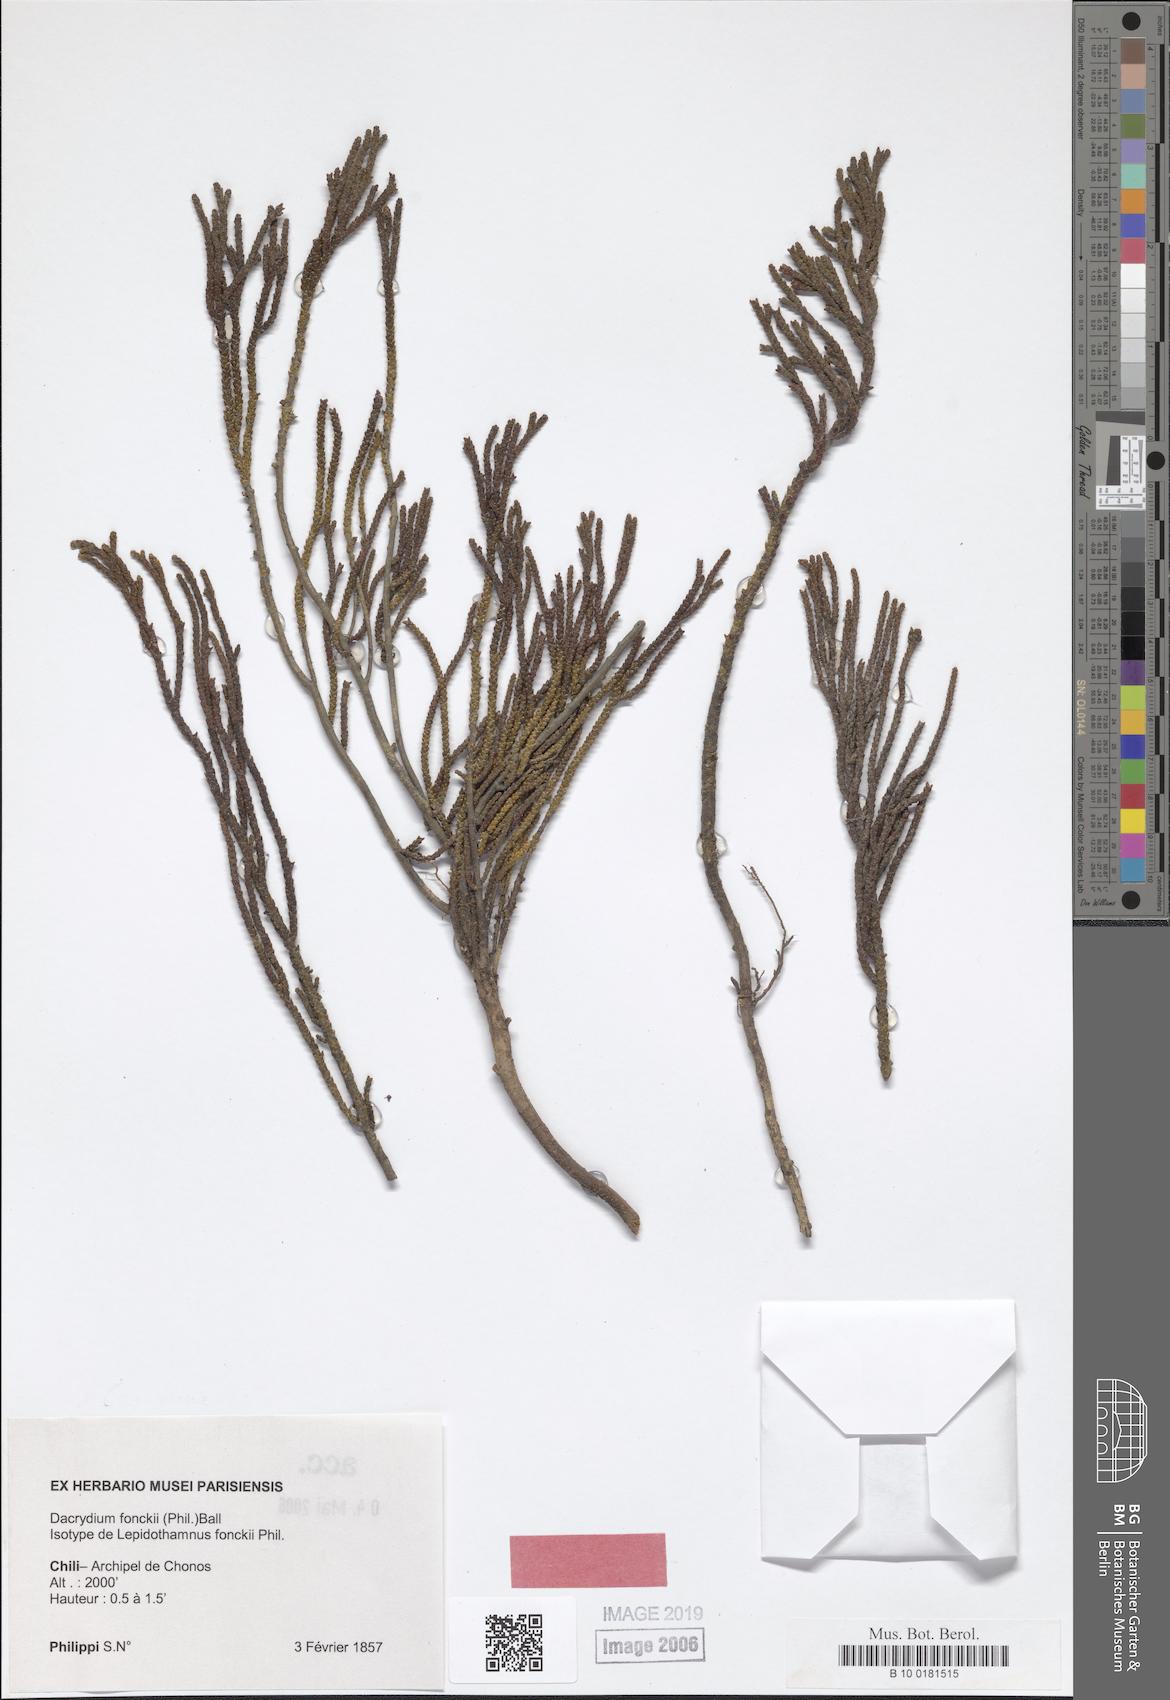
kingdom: Plantae
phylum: Tracheophyta
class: Pinopsida
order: Pinales
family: Podocarpaceae
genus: Lepidothamnus
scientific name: Lepidothamnus fonkii
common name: Chilean rimu
